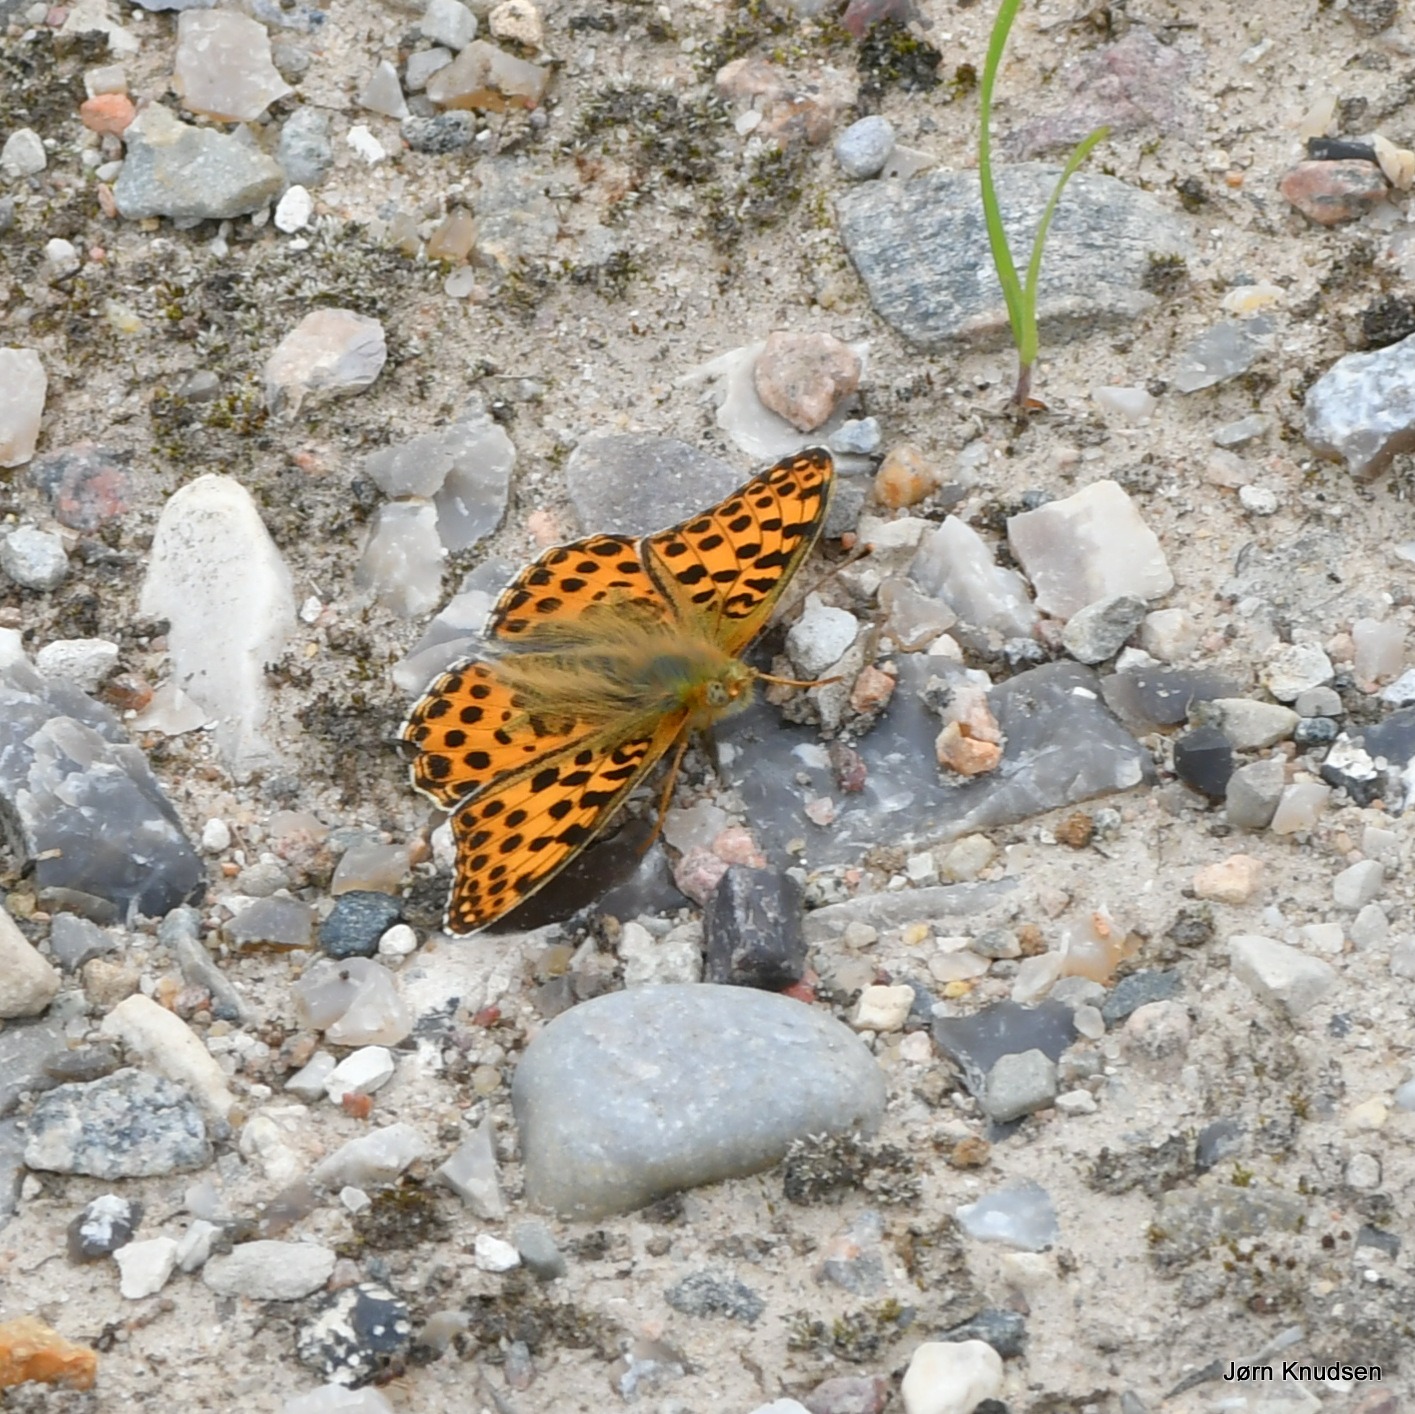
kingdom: Animalia
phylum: Arthropoda
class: Insecta
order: Lepidoptera
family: Nymphalidae
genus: Issoria
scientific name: Issoria lathonia
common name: Storplettet perlemorsommerfugl
